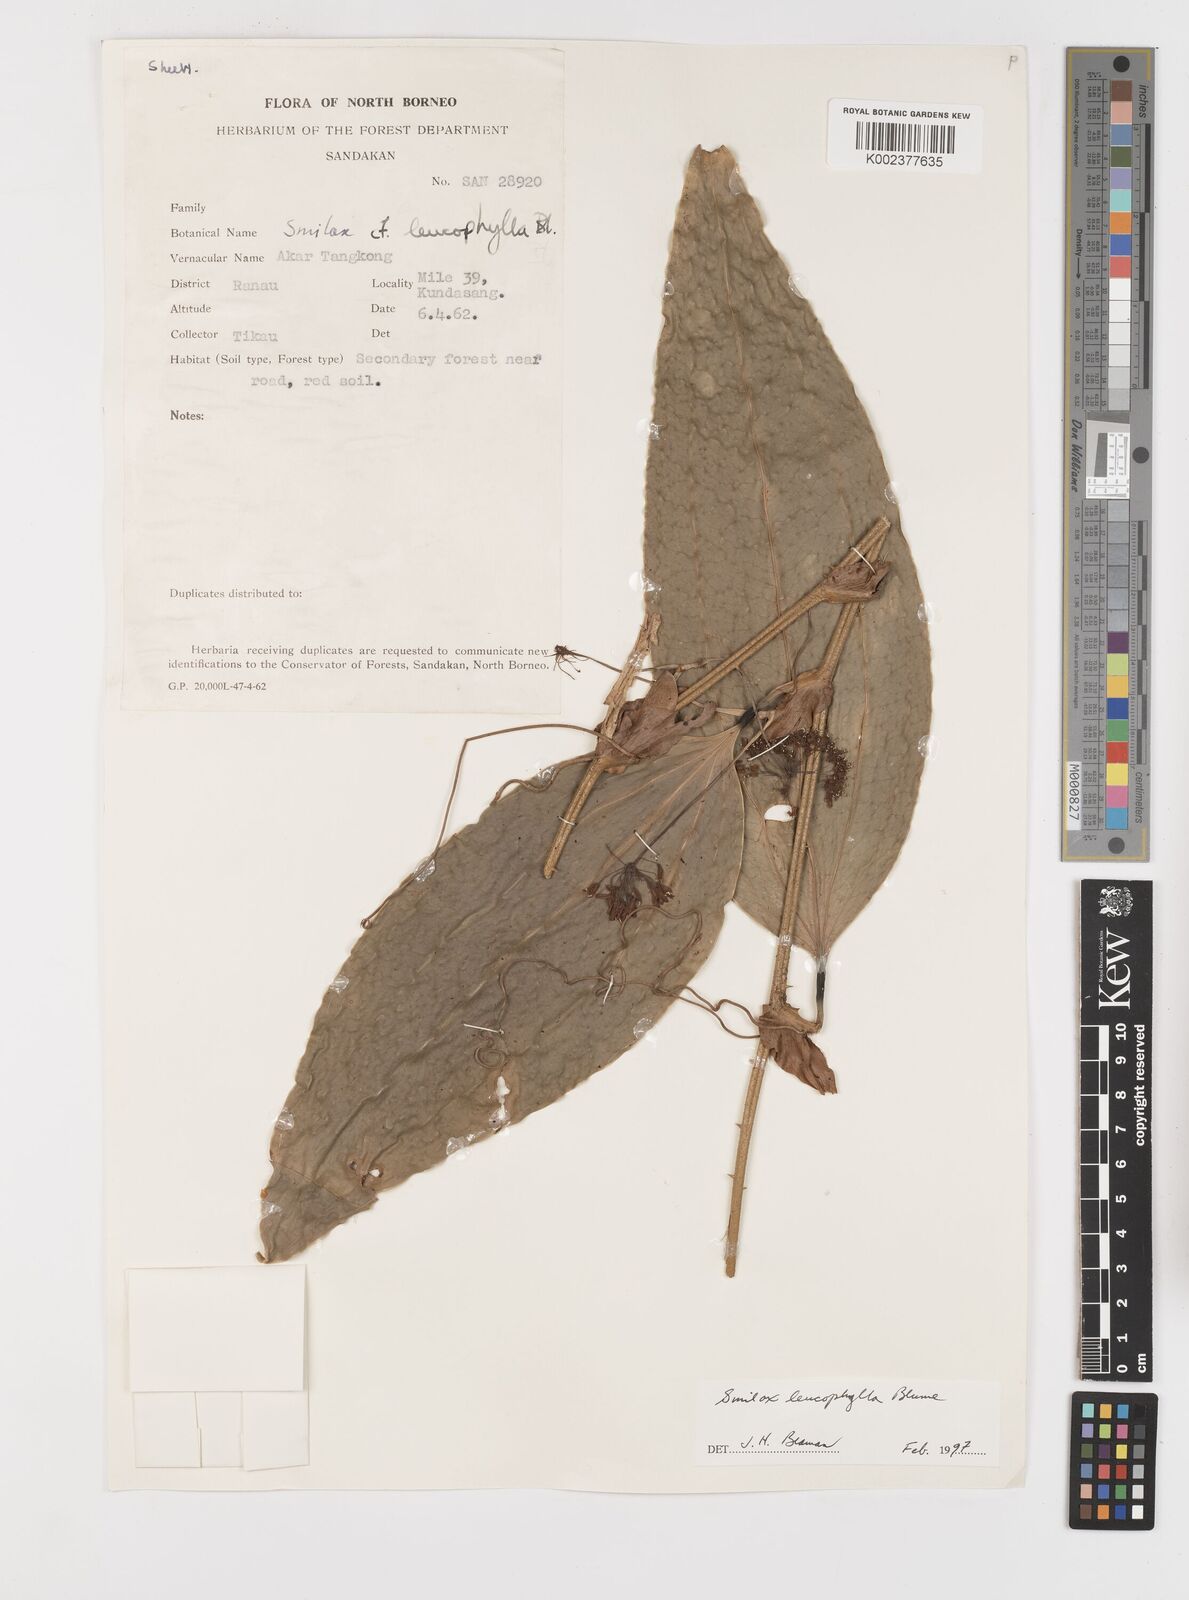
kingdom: Plantae
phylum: Tracheophyta
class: Liliopsida
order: Liliales
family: Smilacaceae
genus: Smilax
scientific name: Smilax leucophylla
